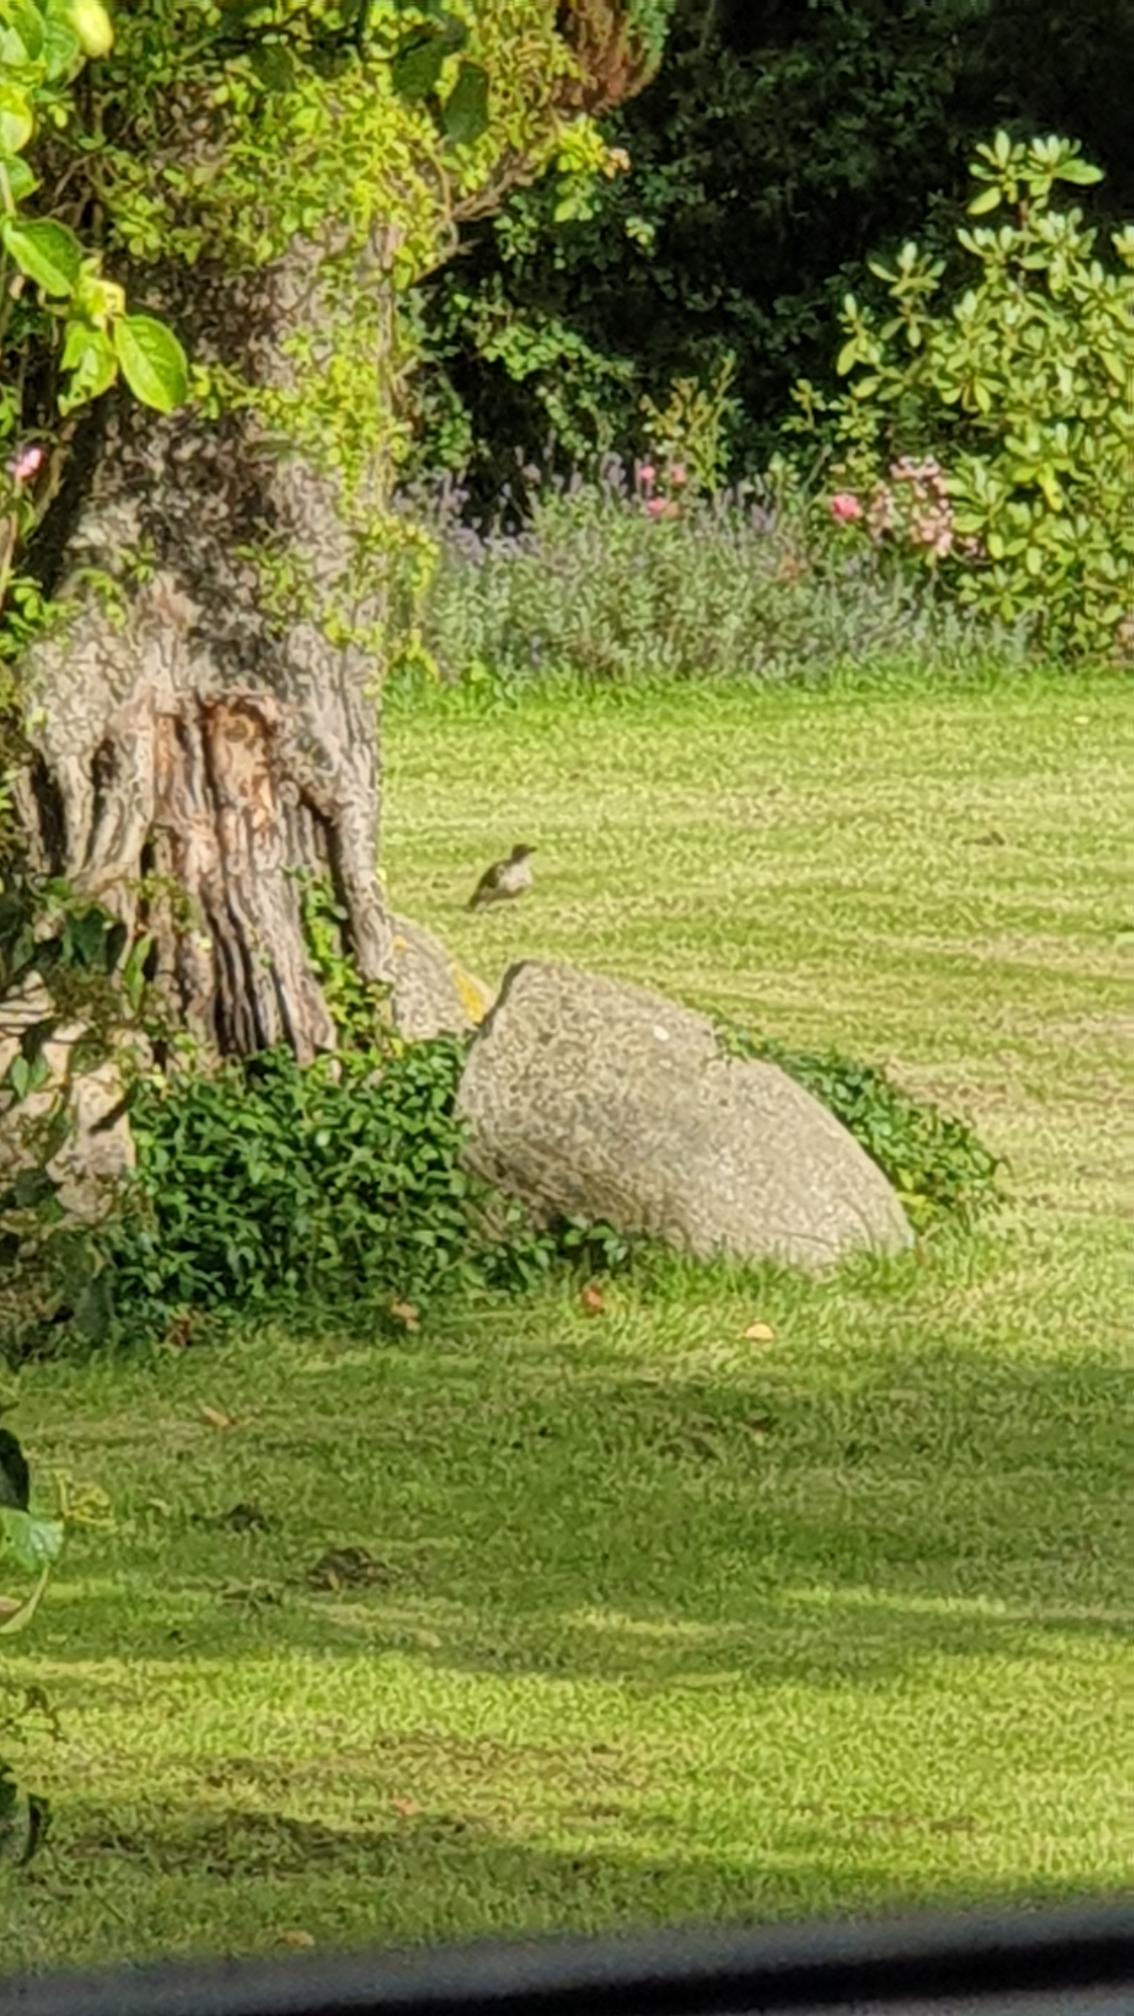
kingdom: Animalia
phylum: Chordata
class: Aves
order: Piciformes
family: Picidae
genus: Picus
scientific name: Picus viridis
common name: Grønspætte
